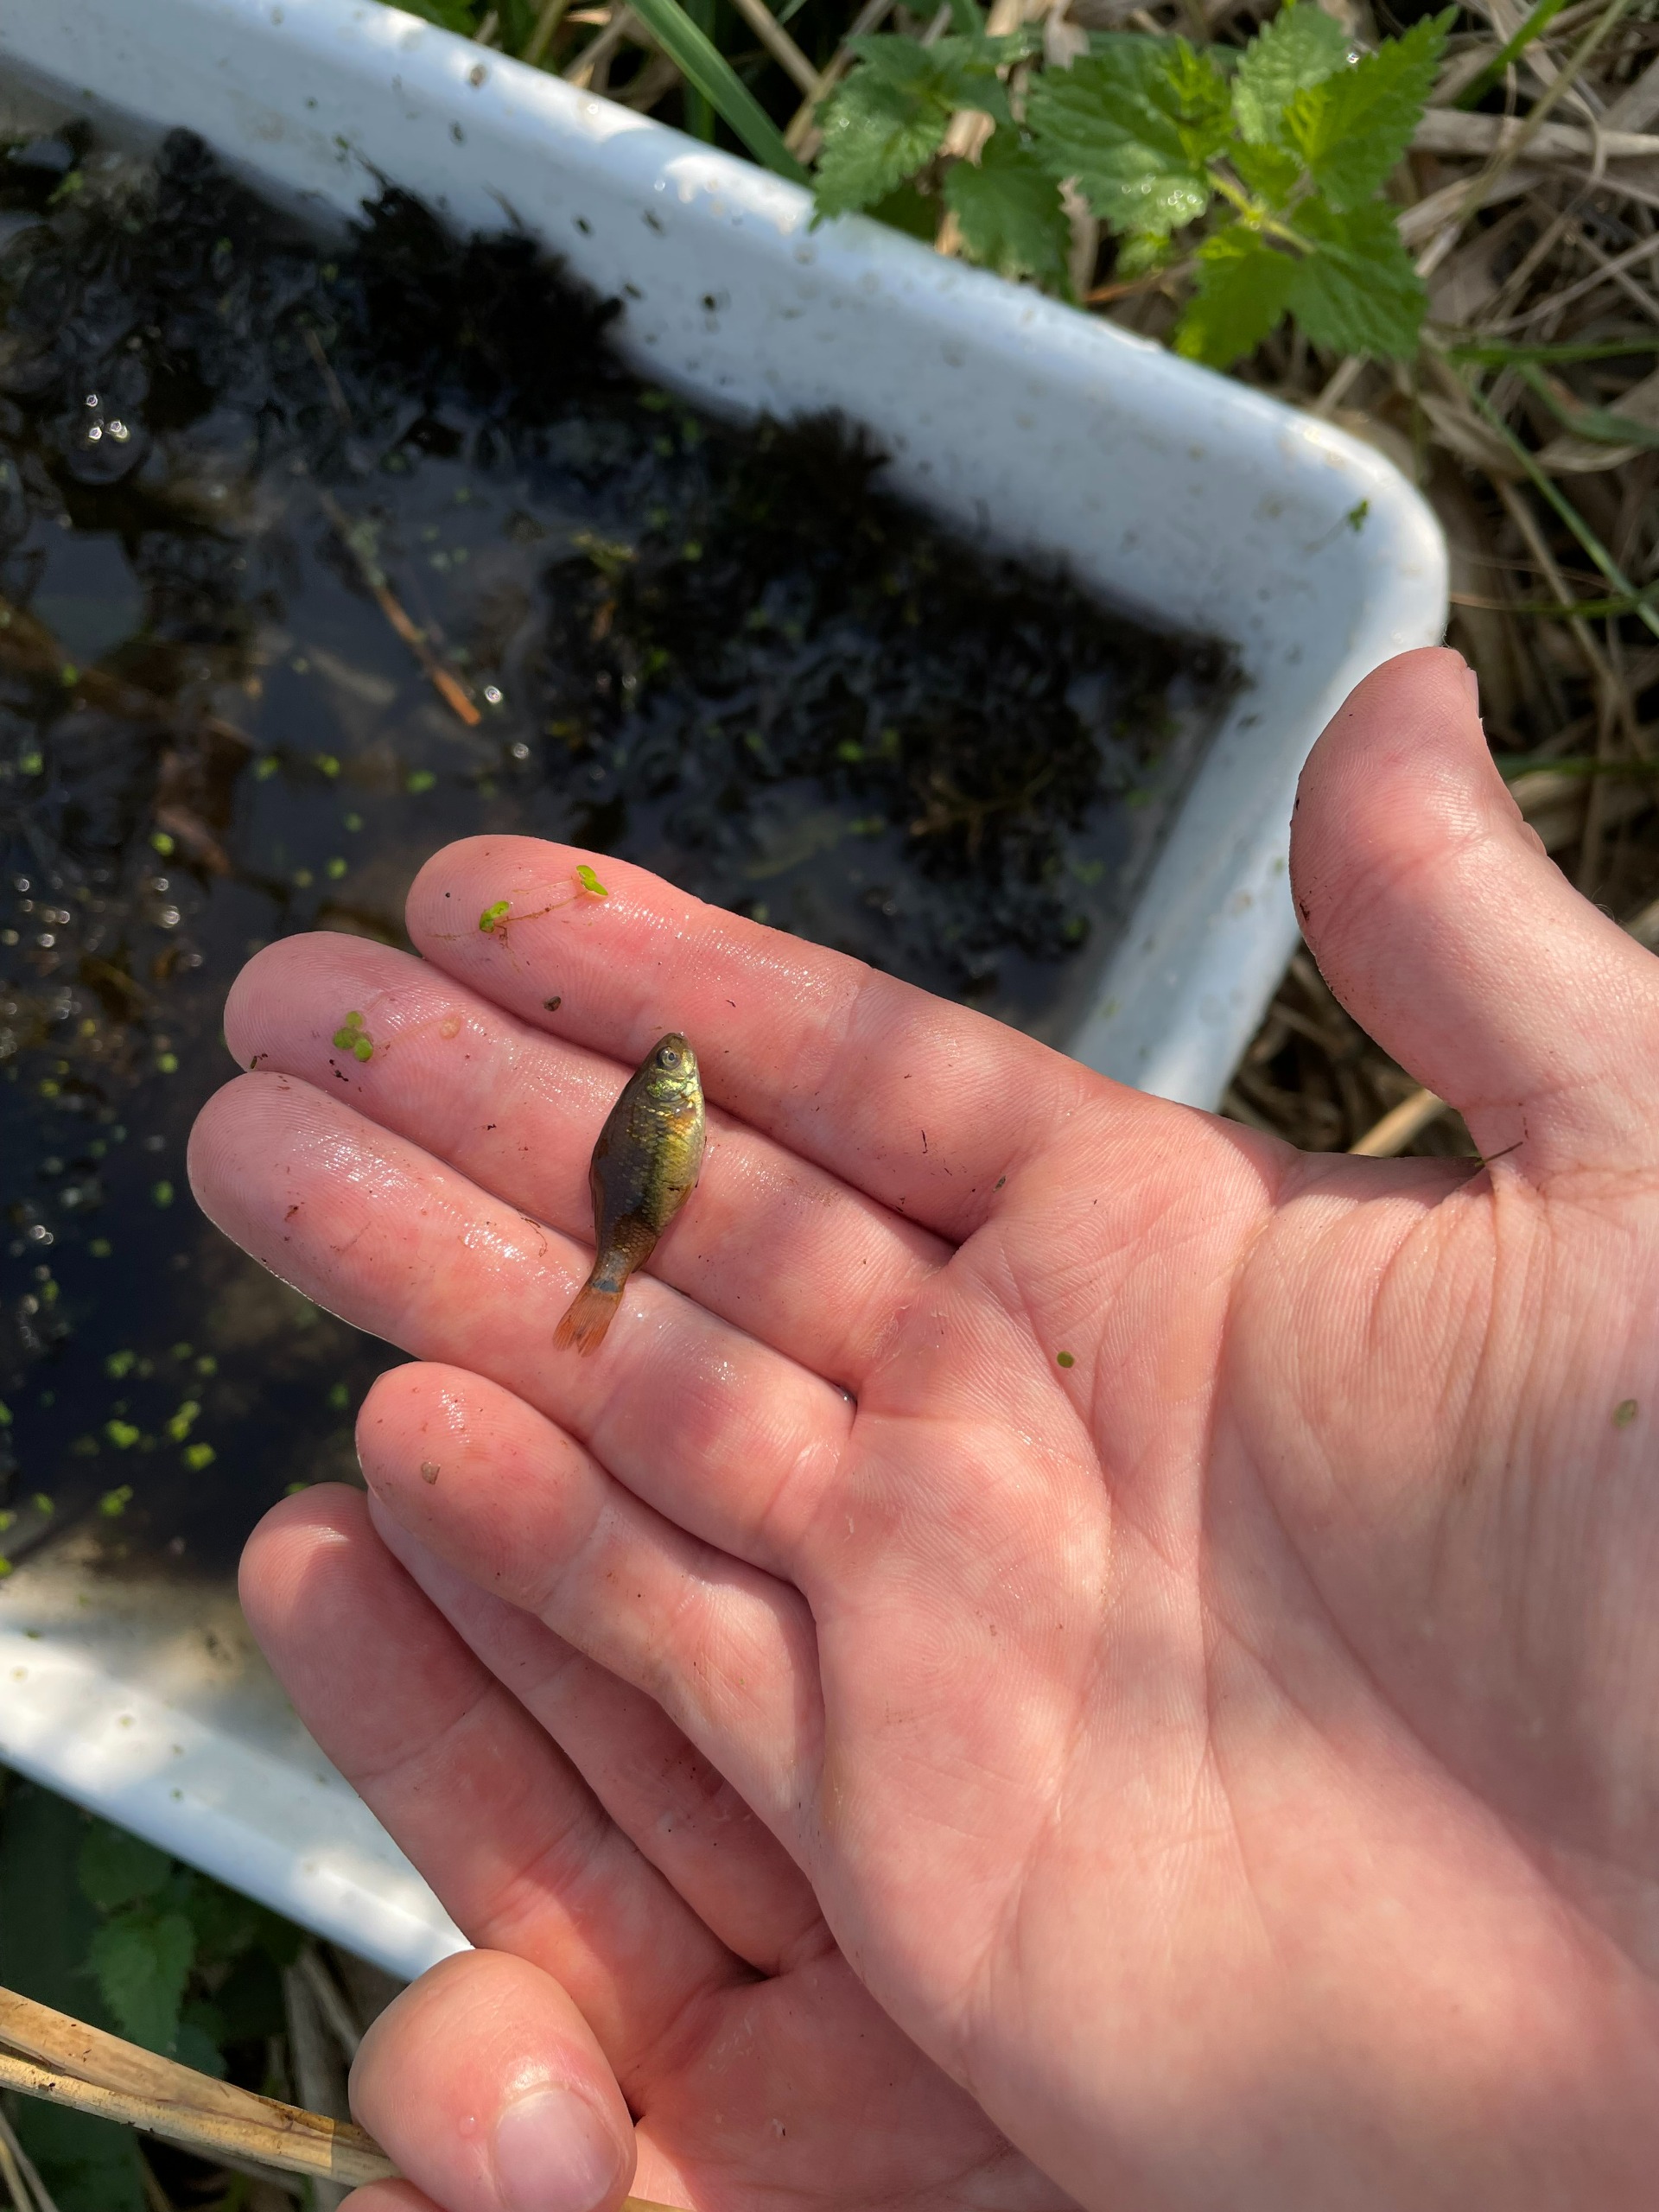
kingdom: Animalia
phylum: Chordata
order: Cypriniformes
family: Cyprinidae
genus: Carassius
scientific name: Carassius carassius
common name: Karusse
